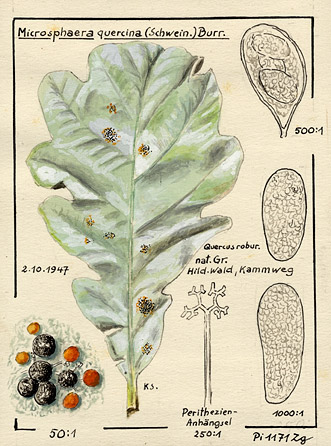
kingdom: Plantae
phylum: Tracheophyta
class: Magnoliopsida
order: Fagales
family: Fagaceae
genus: Quercus
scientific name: Quercus robur
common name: Pedunculate oak
